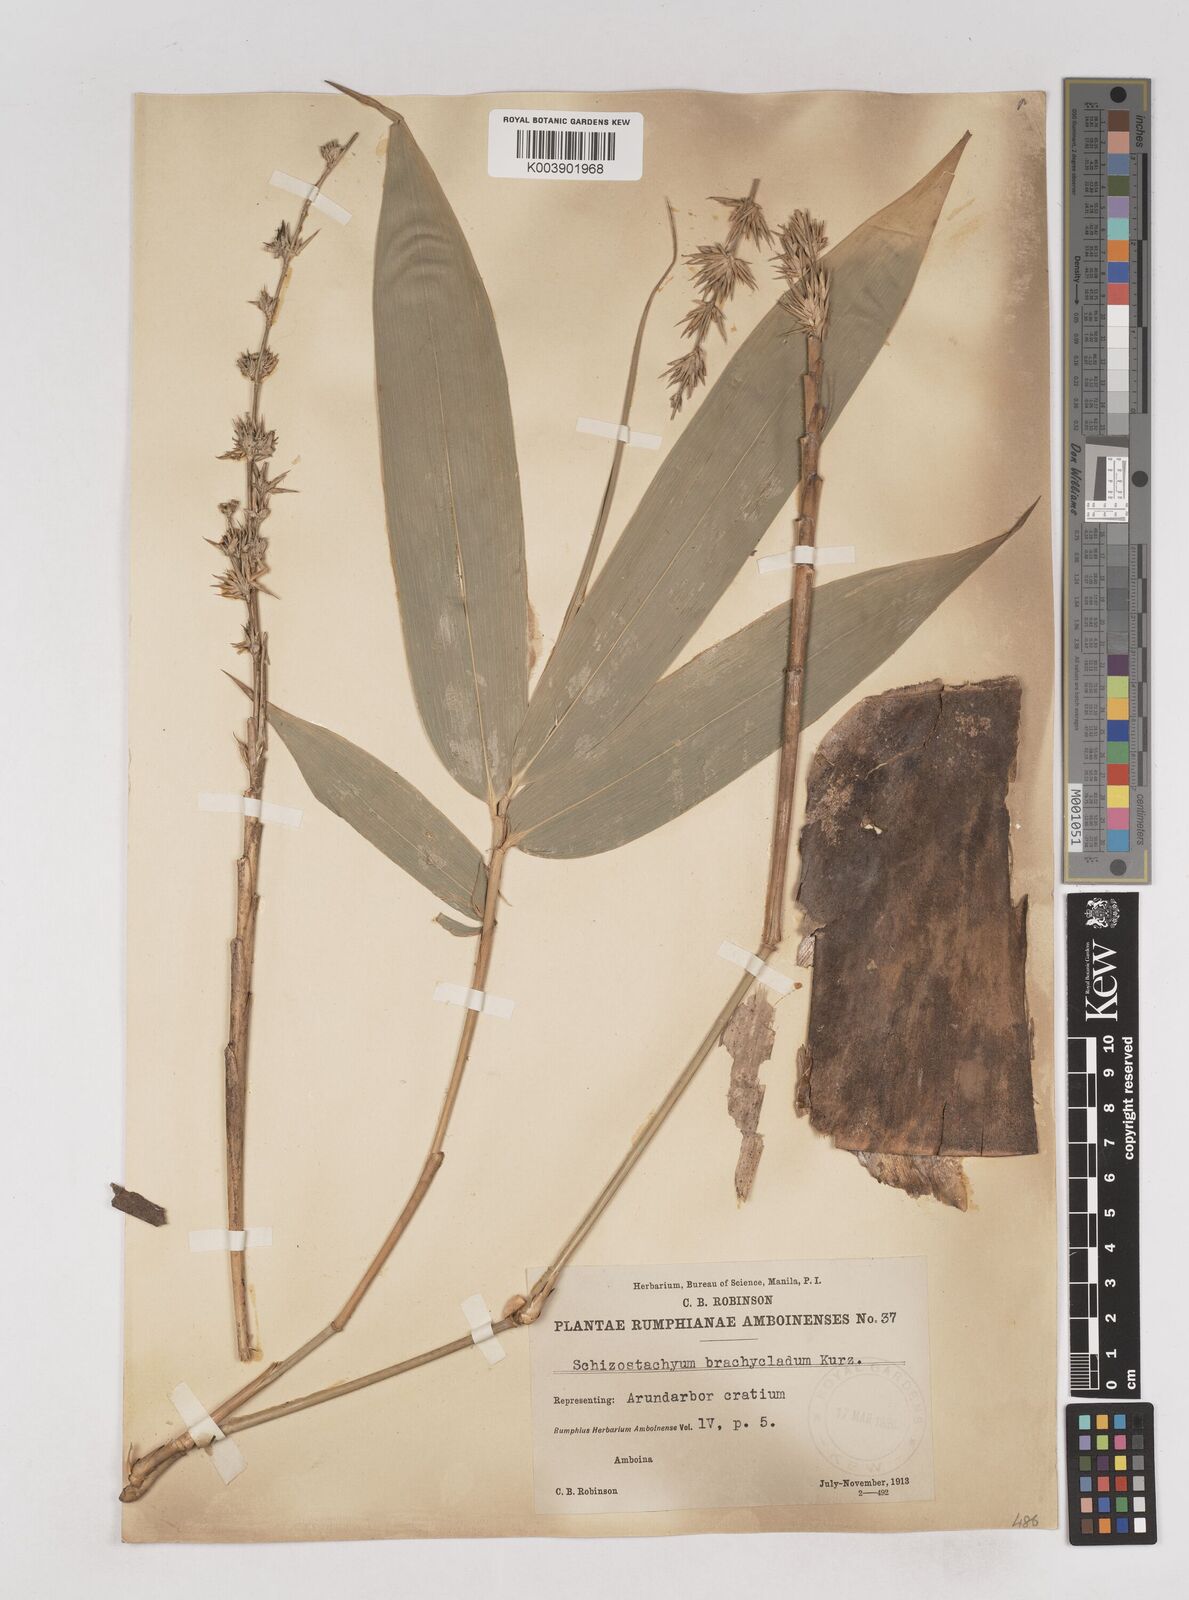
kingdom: Plantae
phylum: Tracheophyta
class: Liliopsida
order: Poales
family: Poaceae
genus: Schizostachyum
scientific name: Schizostachyum brachycladum
